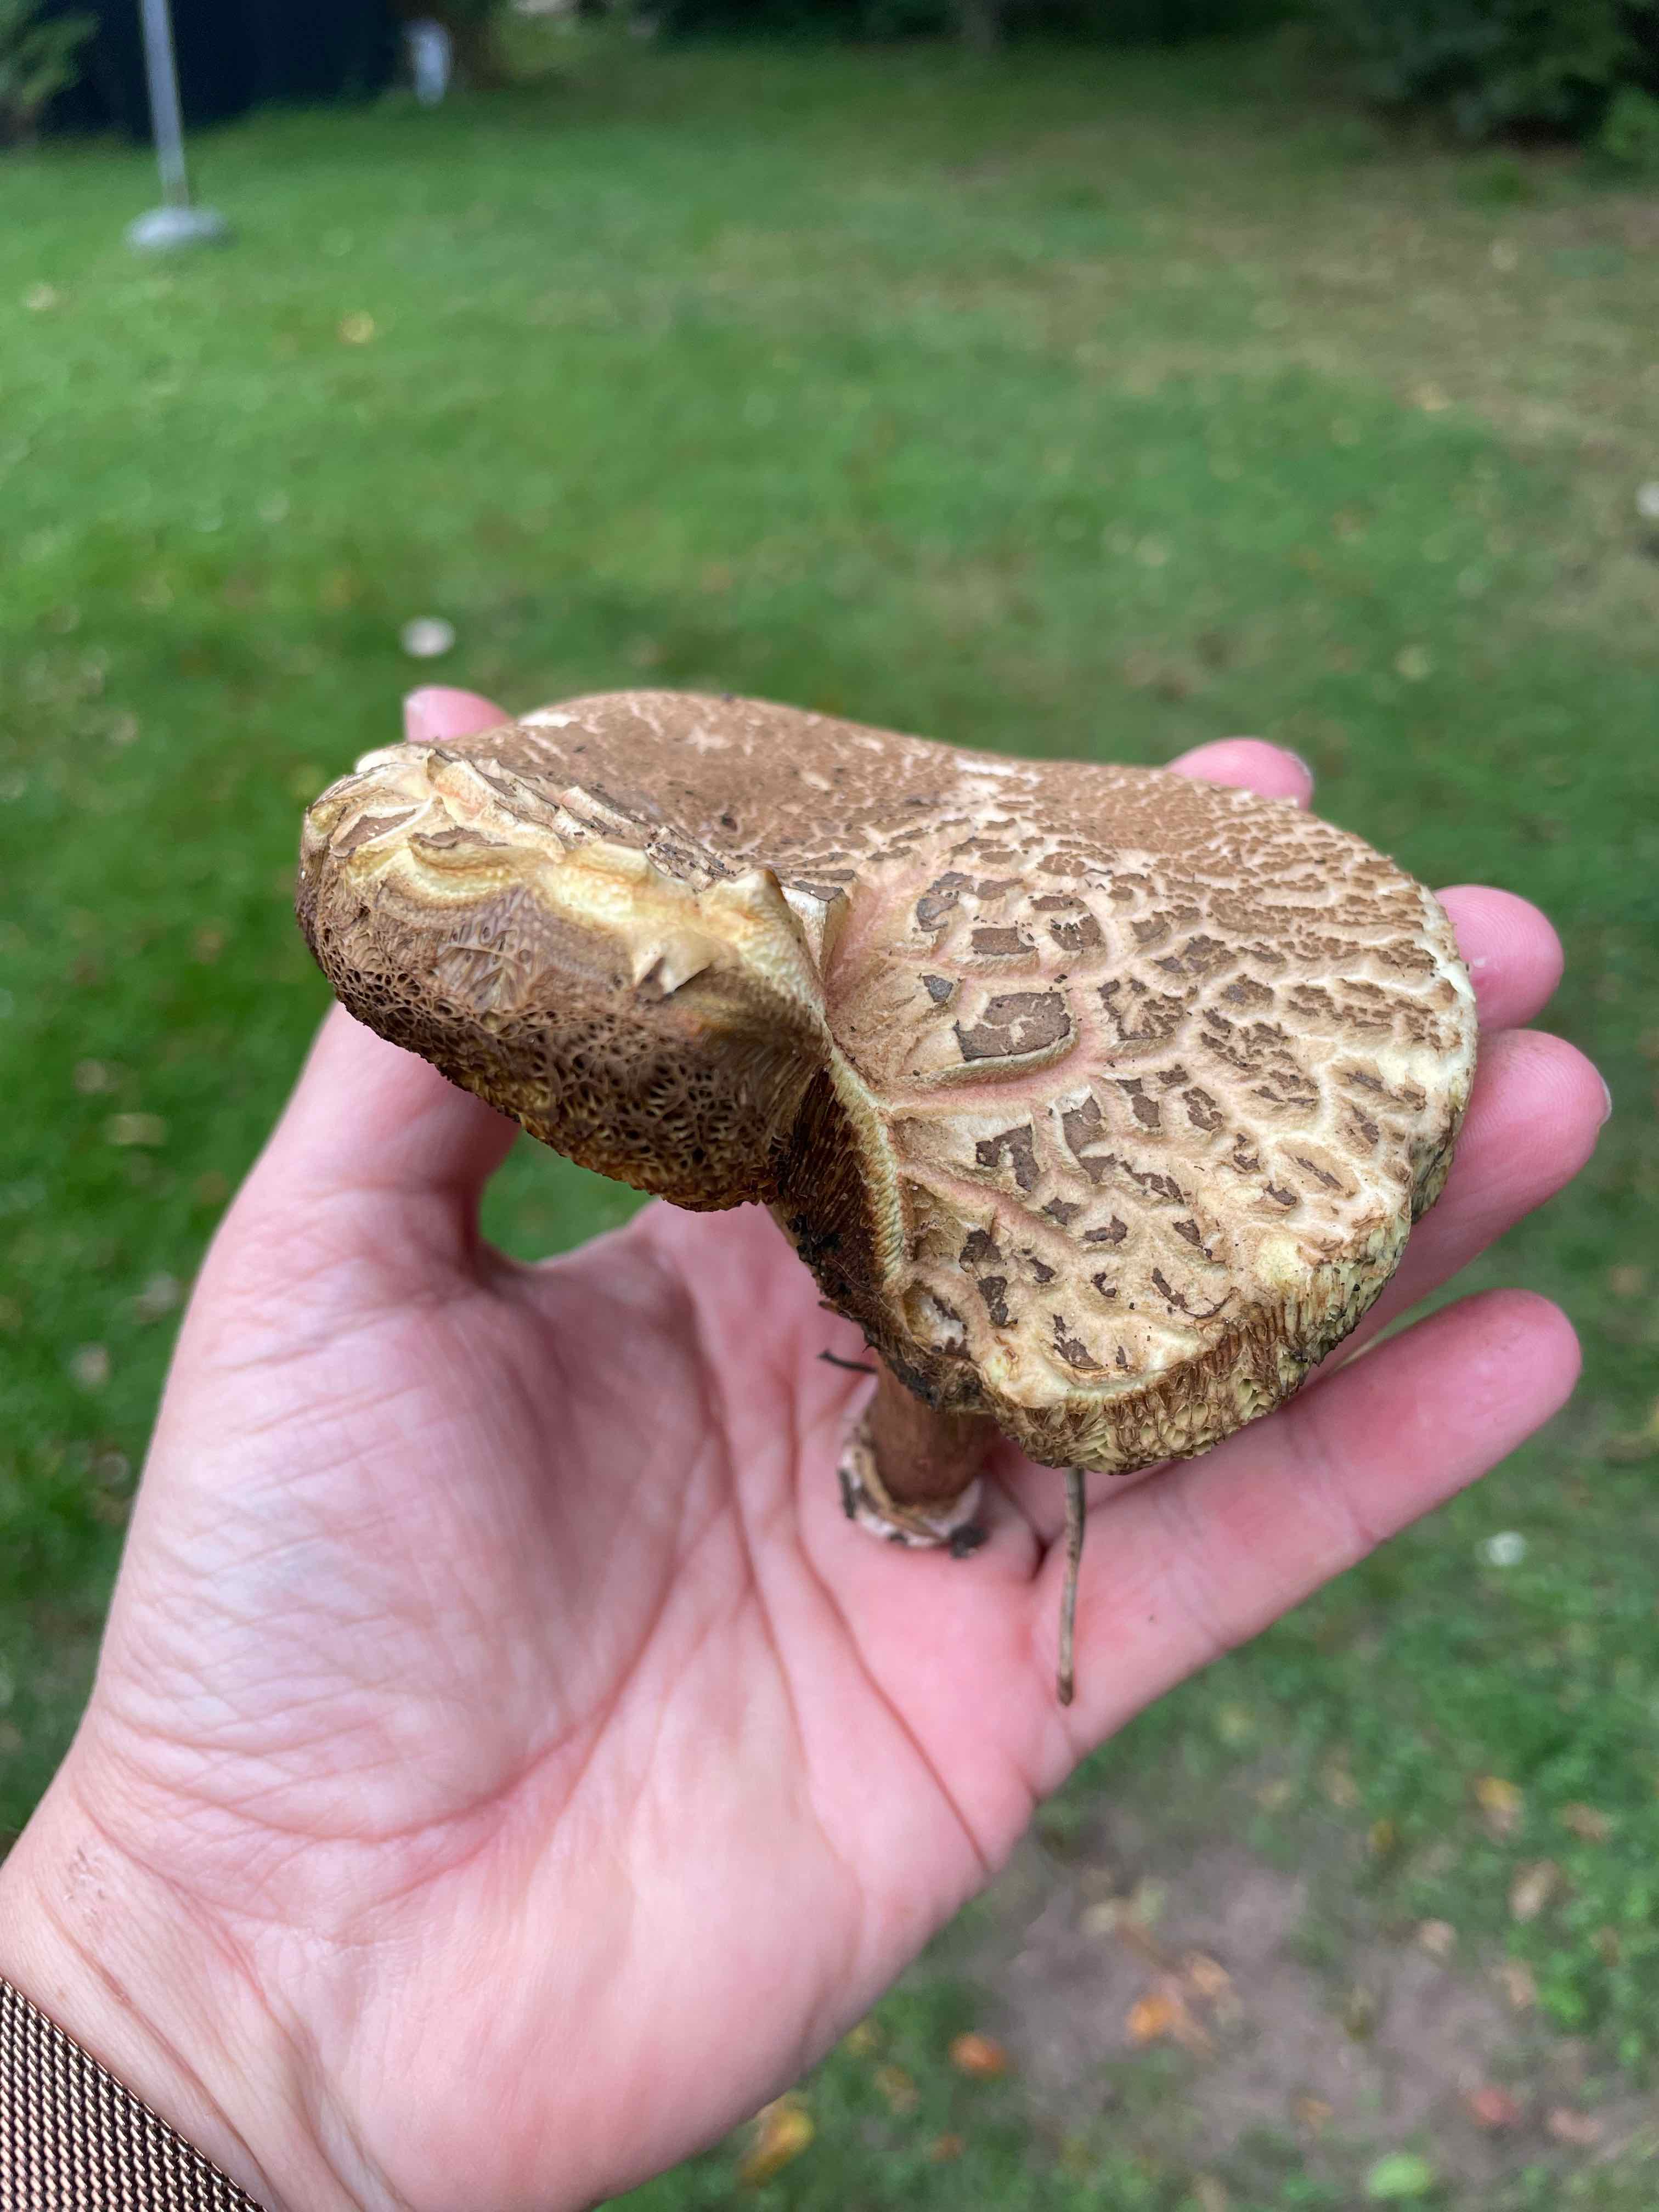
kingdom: Fungi
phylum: Basidiomycota
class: Agaricomycetes
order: Boletales
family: Boletaceae
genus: Xerocomellus
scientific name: Xerocomellus porosporus
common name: hvidsprukken rørhat
